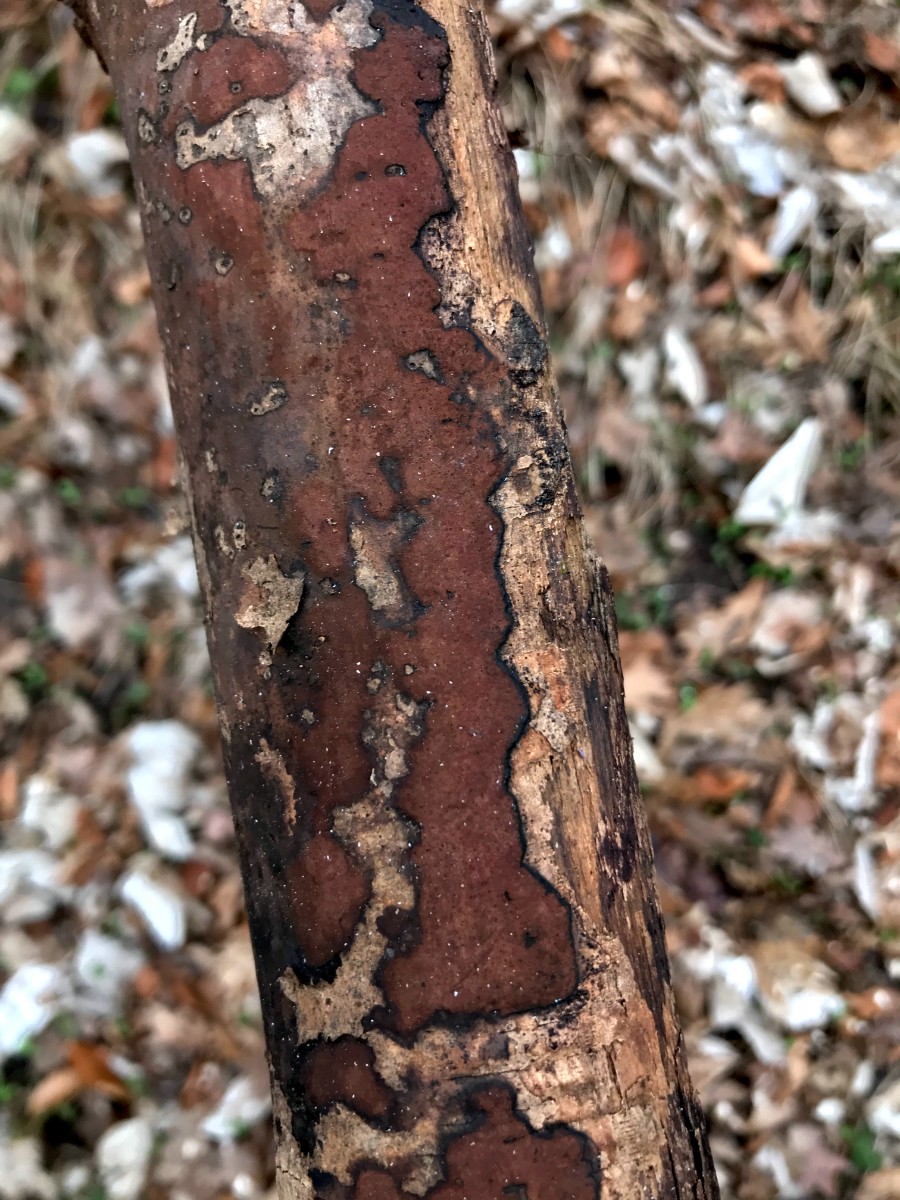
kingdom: Fungi
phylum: Ascomycota
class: Sordariomycetes
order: Xylariales
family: Hypoxylaceae
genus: Hypoxylon
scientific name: Hypoxylon petriniae
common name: nedsænket kulbær
